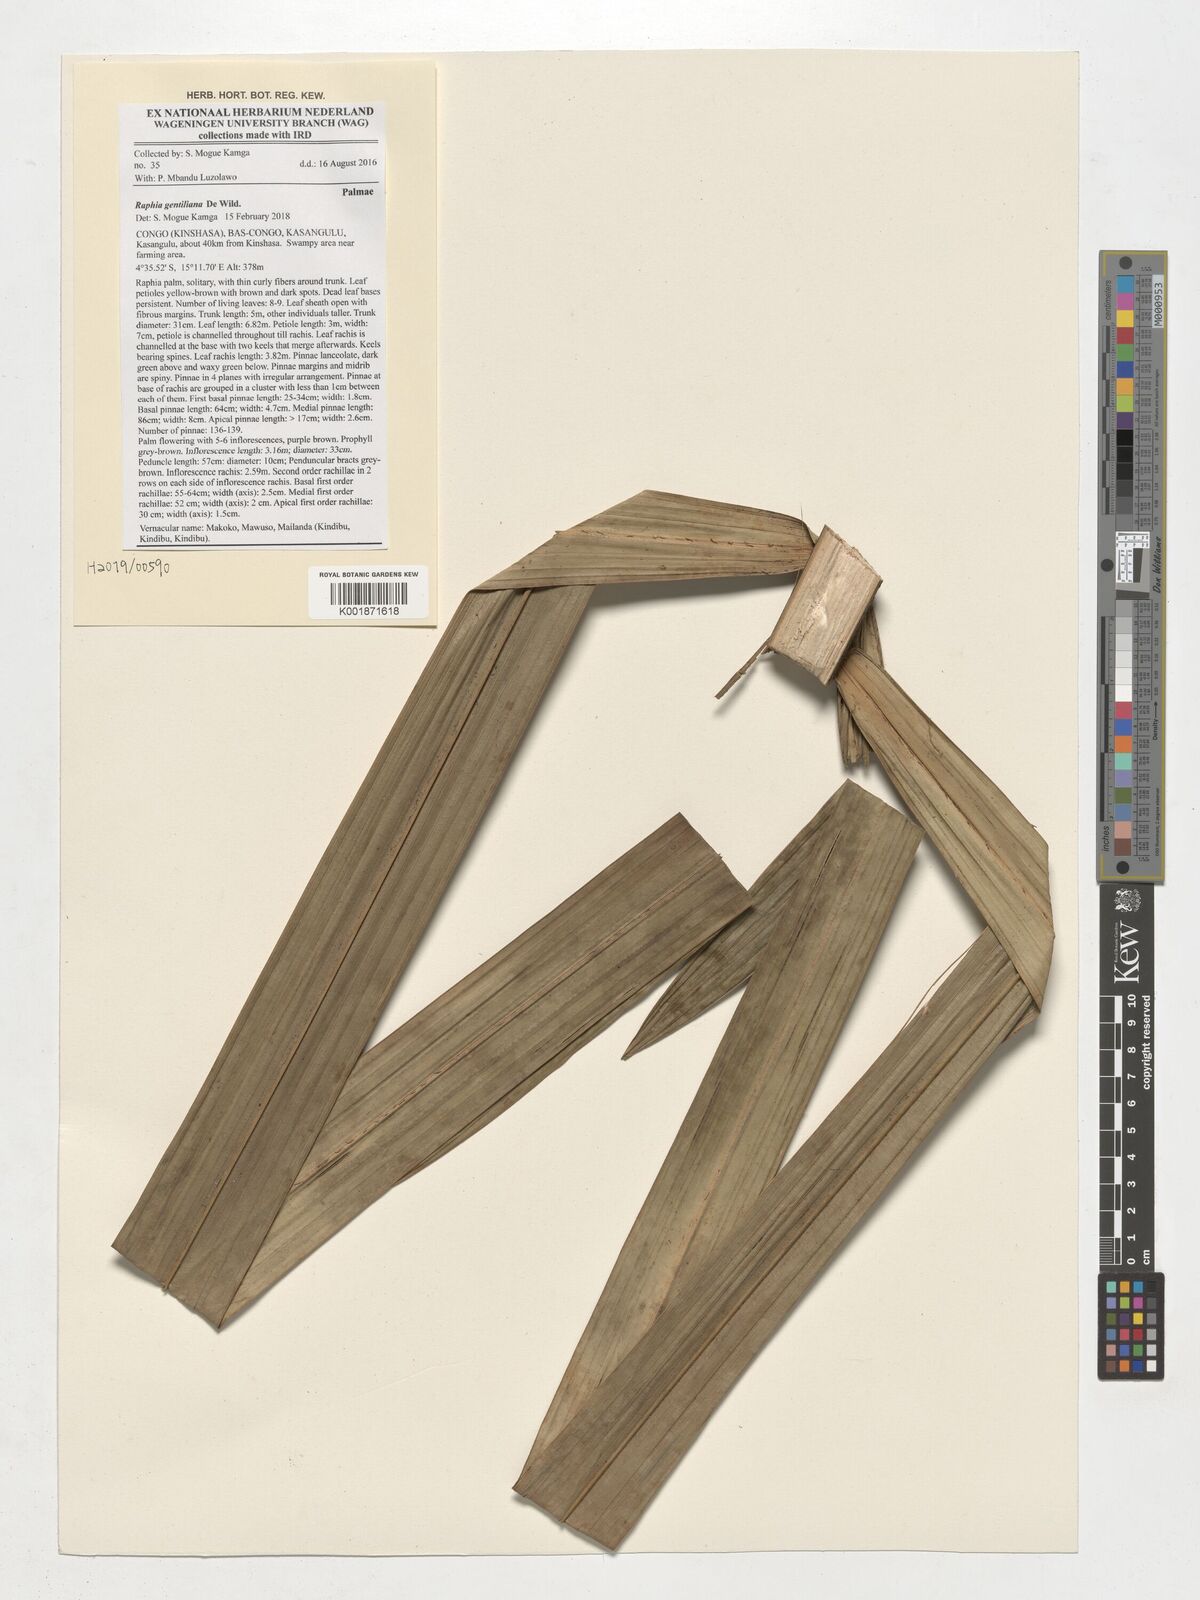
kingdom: Plantae
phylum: Tracheophyta
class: Liliopsida
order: Arecales
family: Arecaceae
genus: Raphia
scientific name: Raphia gentiliana
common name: Raphia palm
